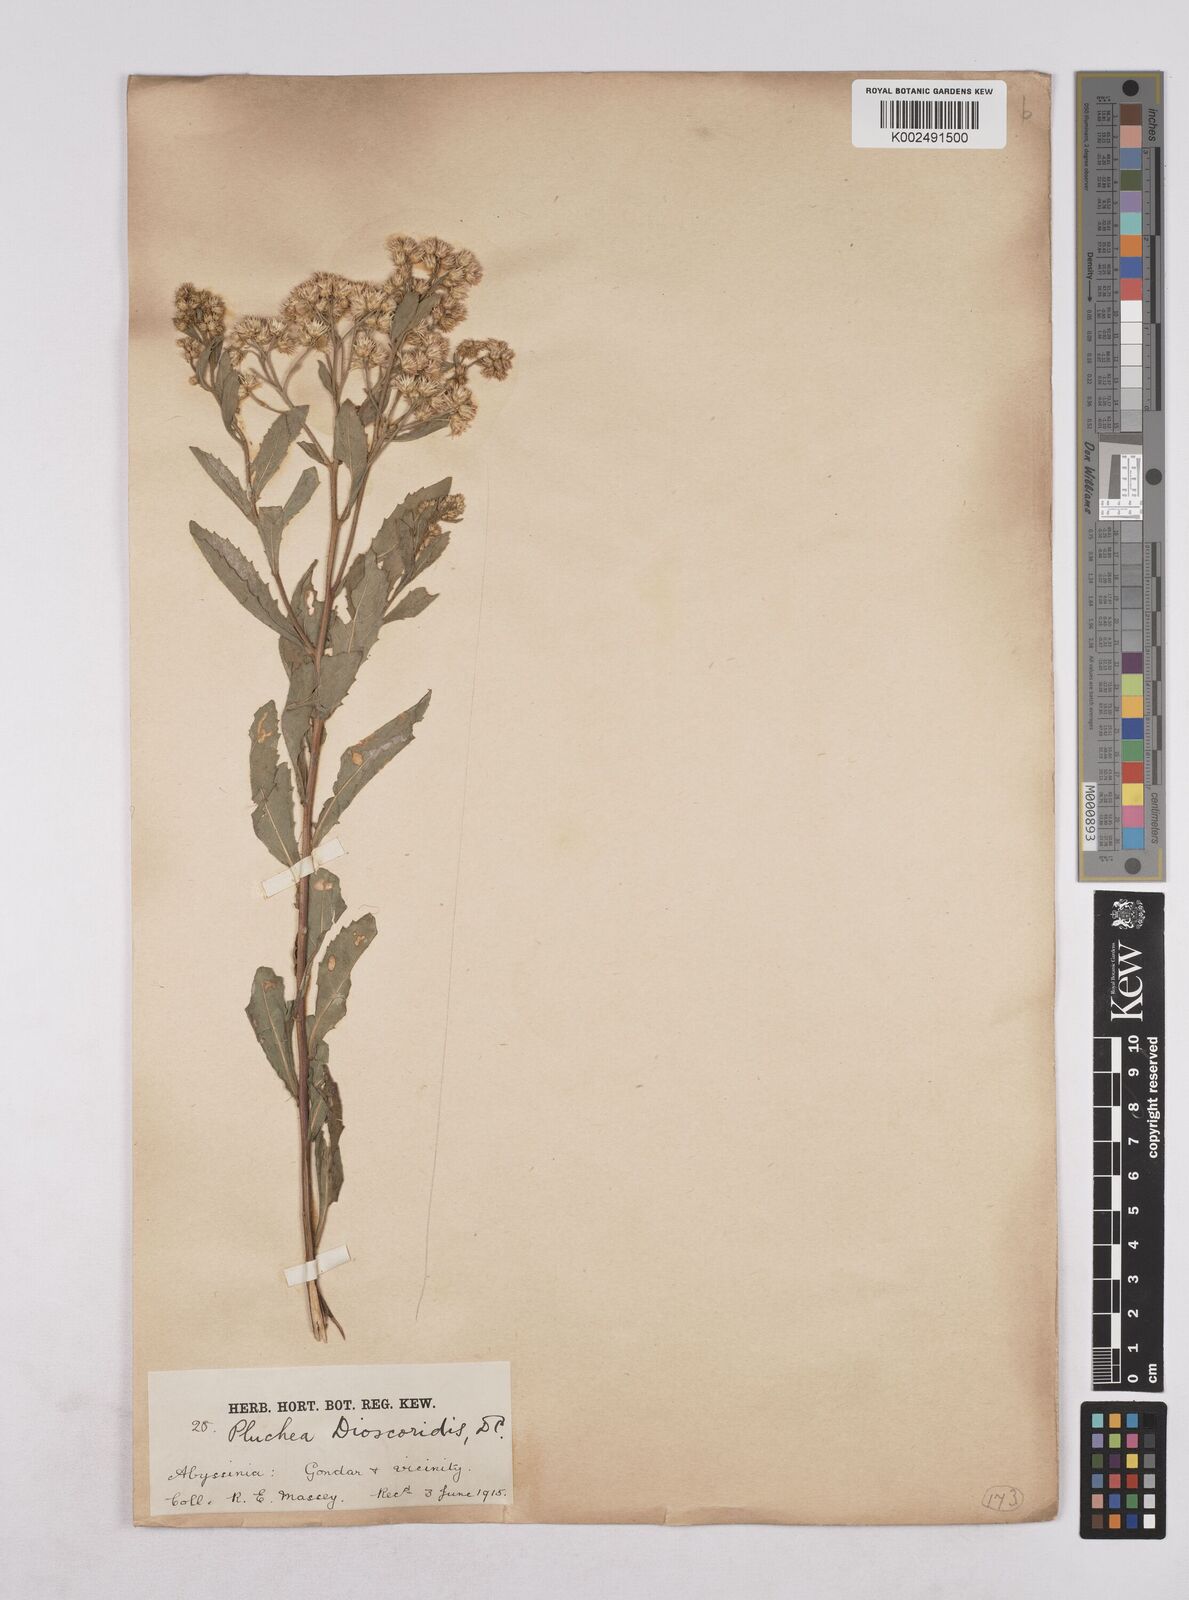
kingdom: Plantae
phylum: Tracheophyta
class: Magnoliopsida
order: Asterales
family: Asteraceae
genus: Pluchea
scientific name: Pluchea dioscoridis
